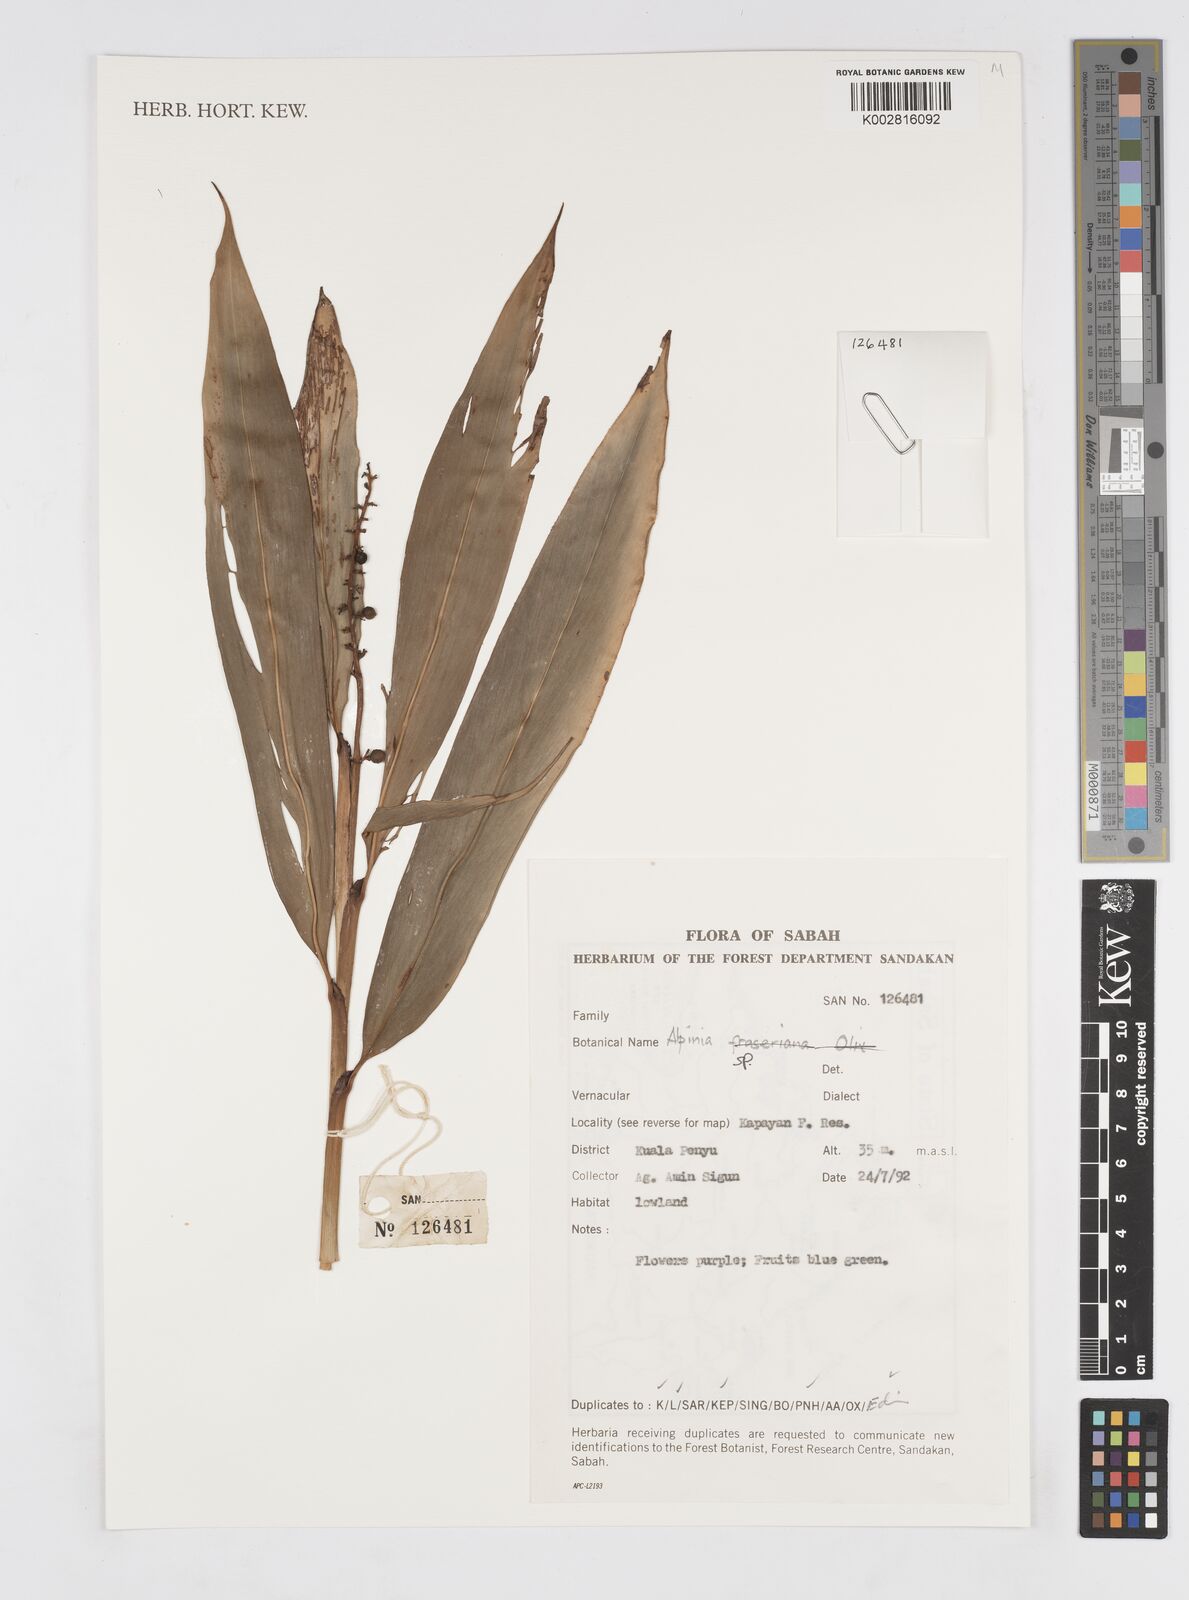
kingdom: Plantae
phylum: Tracheophyta
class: Liliopsida
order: Zingiberales
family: Zingiberaceae
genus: Alpinia
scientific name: Alpinia
